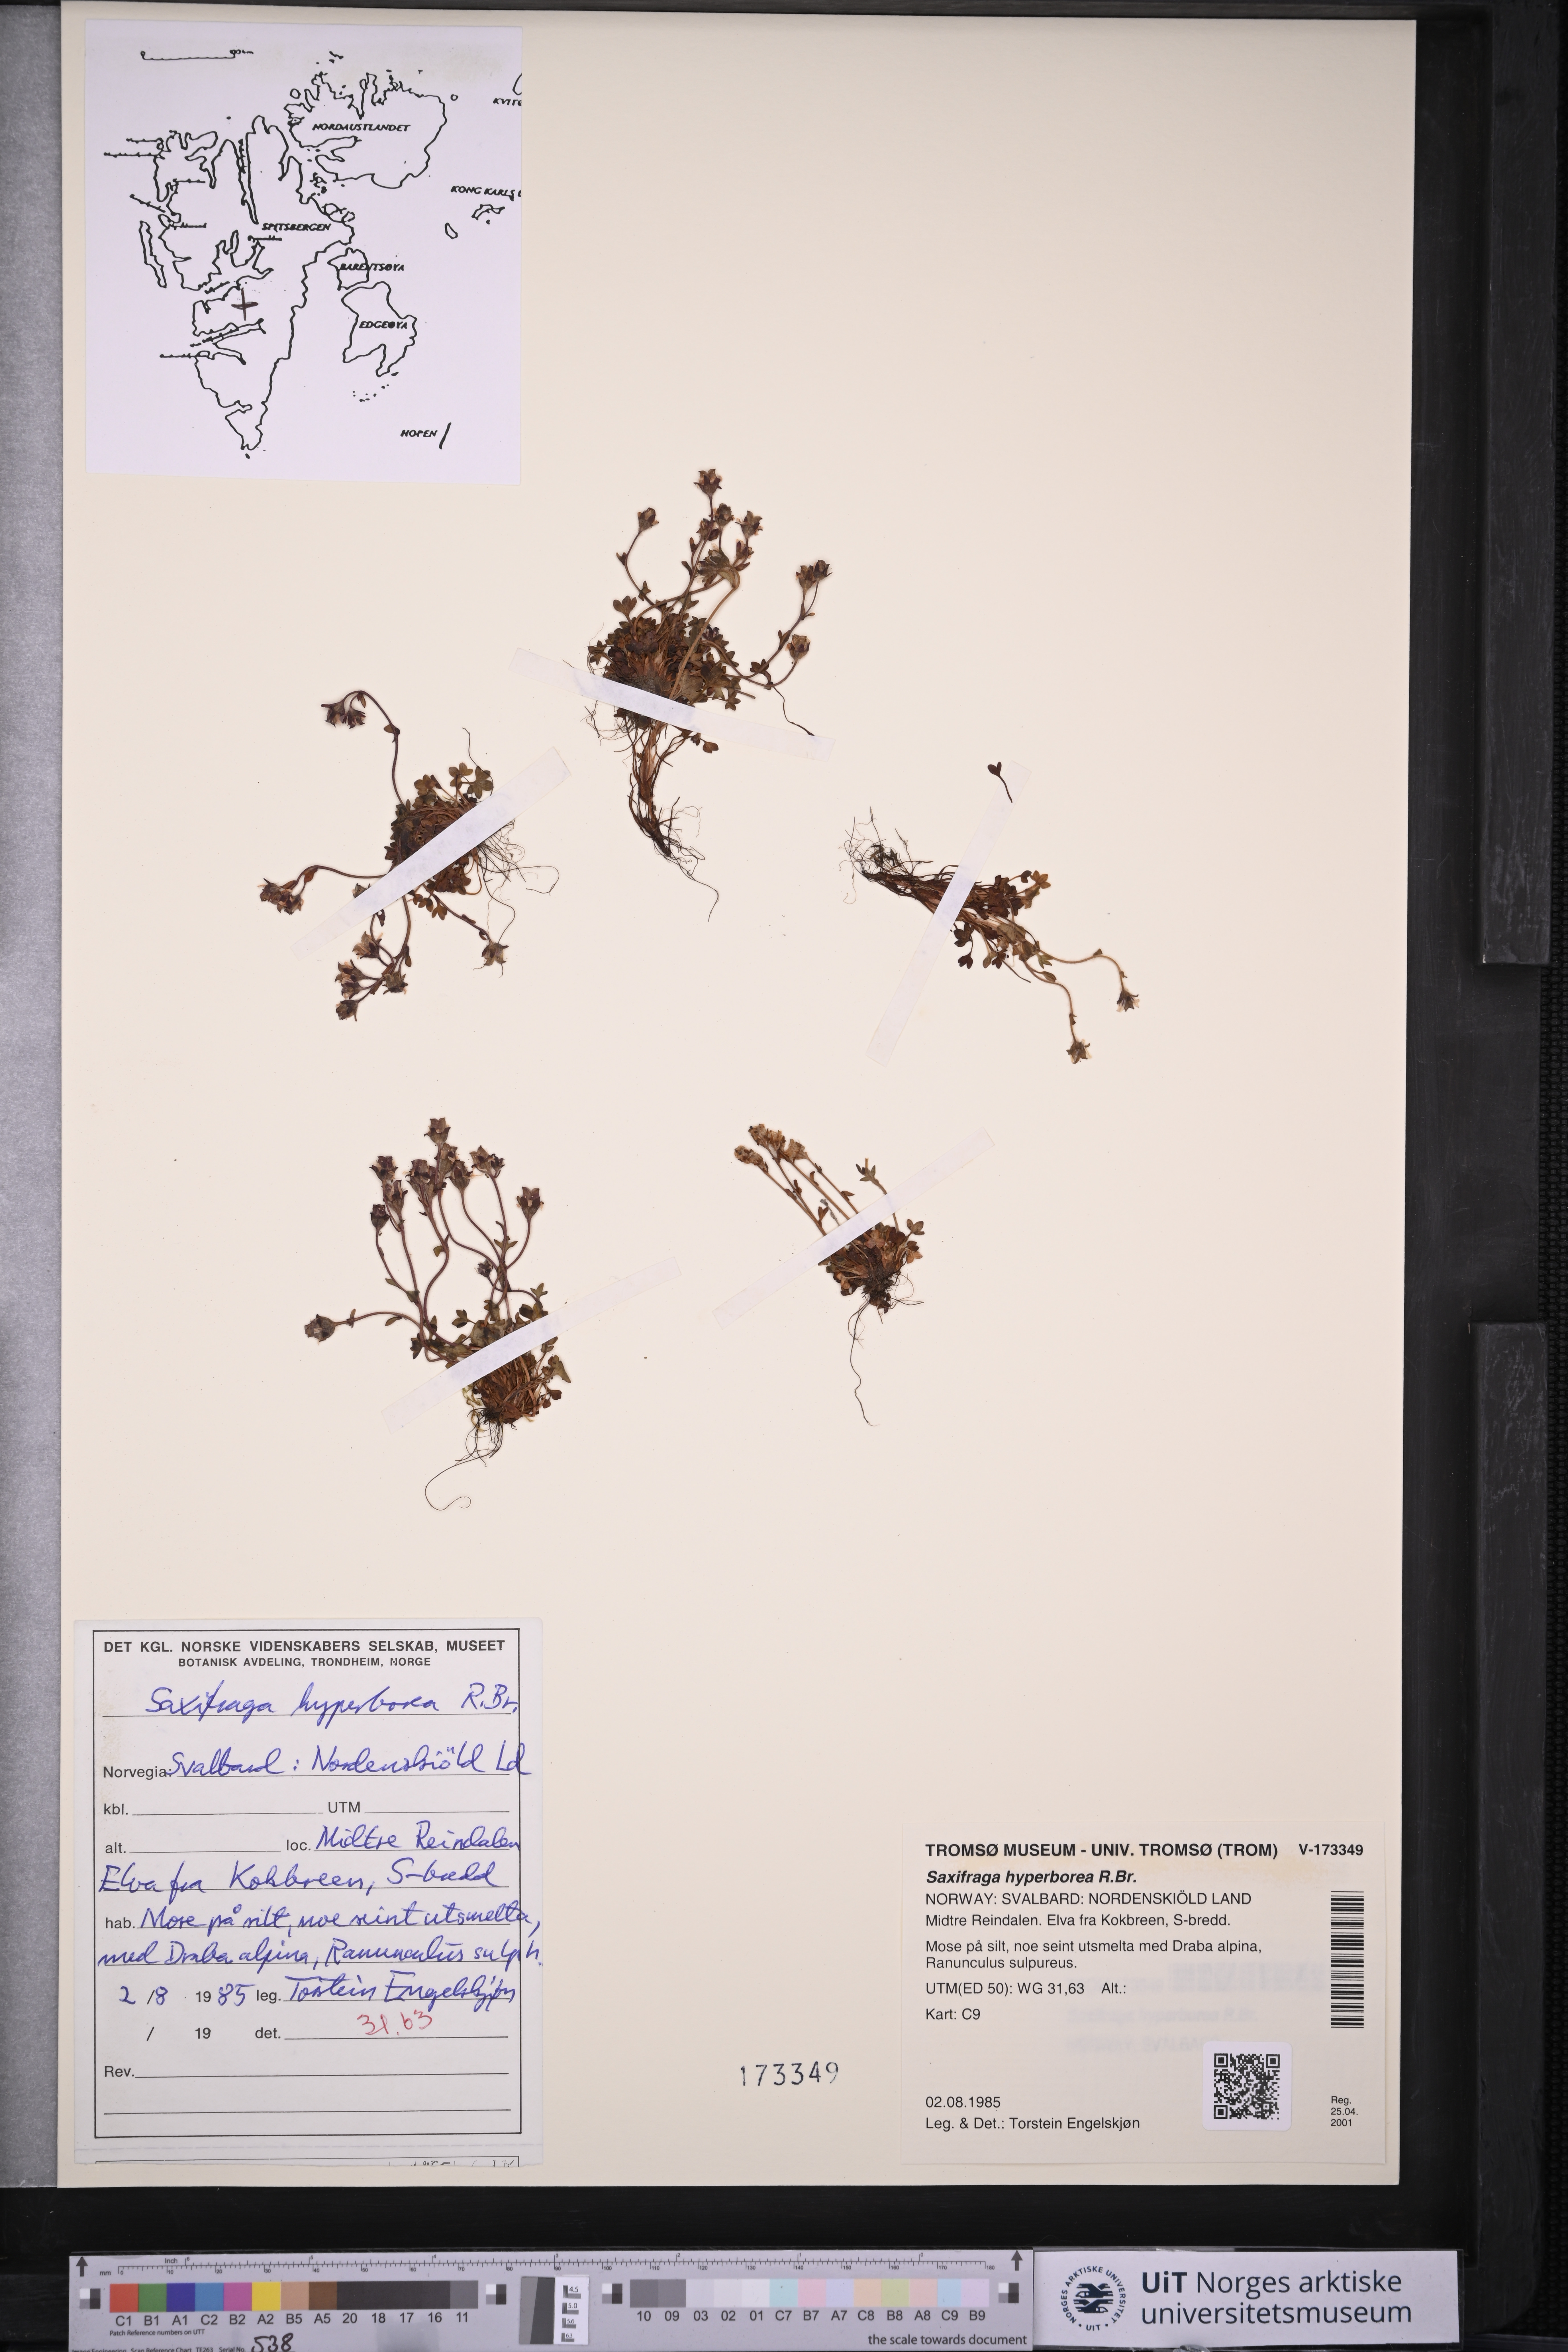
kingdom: Plantae
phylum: Tracheophyta
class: Magnoliopsida
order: Saxifragales
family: Saxifragaceae
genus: Saxifraga
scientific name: Saxifraga hyperborea
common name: Arctic saxifrage
